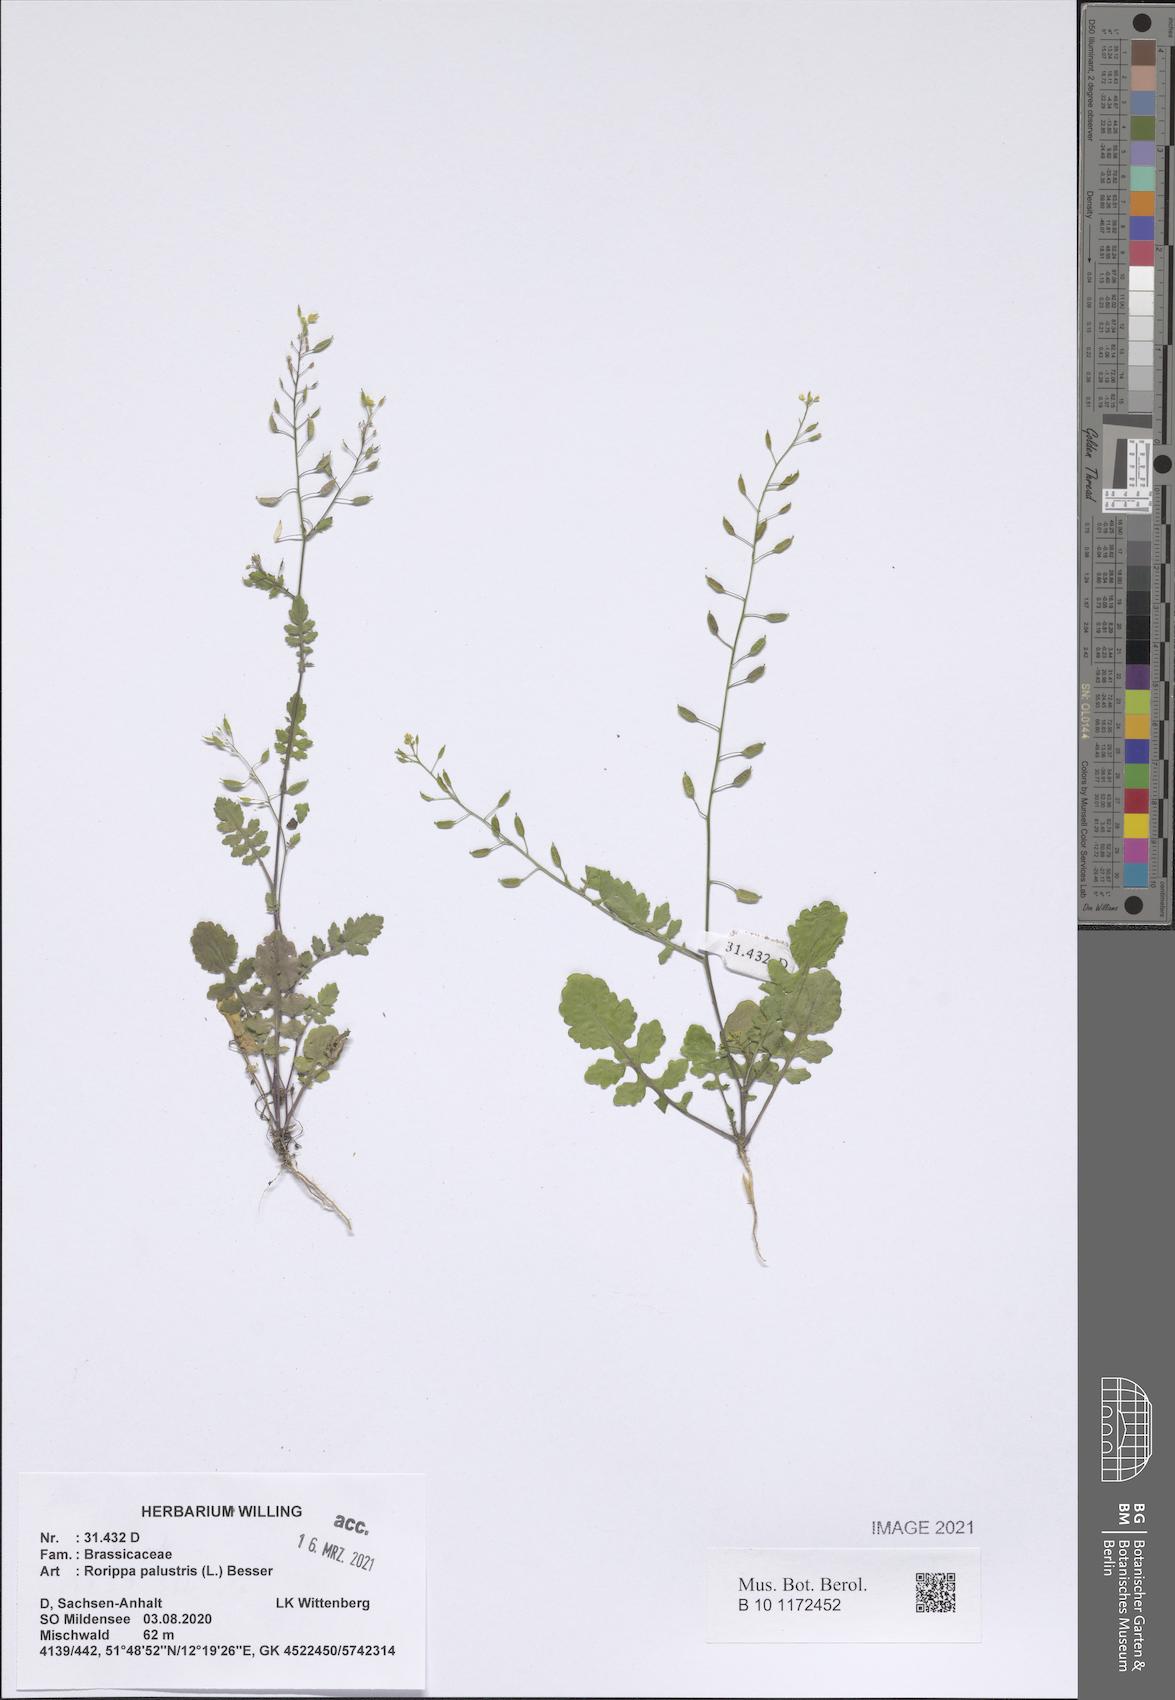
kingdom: Plantae
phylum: Tracheophyta
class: Magnoliopsida
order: Brassicales
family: Brassicaceae
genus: Rorippa
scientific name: Rorippa palustris
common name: Marsh yellow-cress
